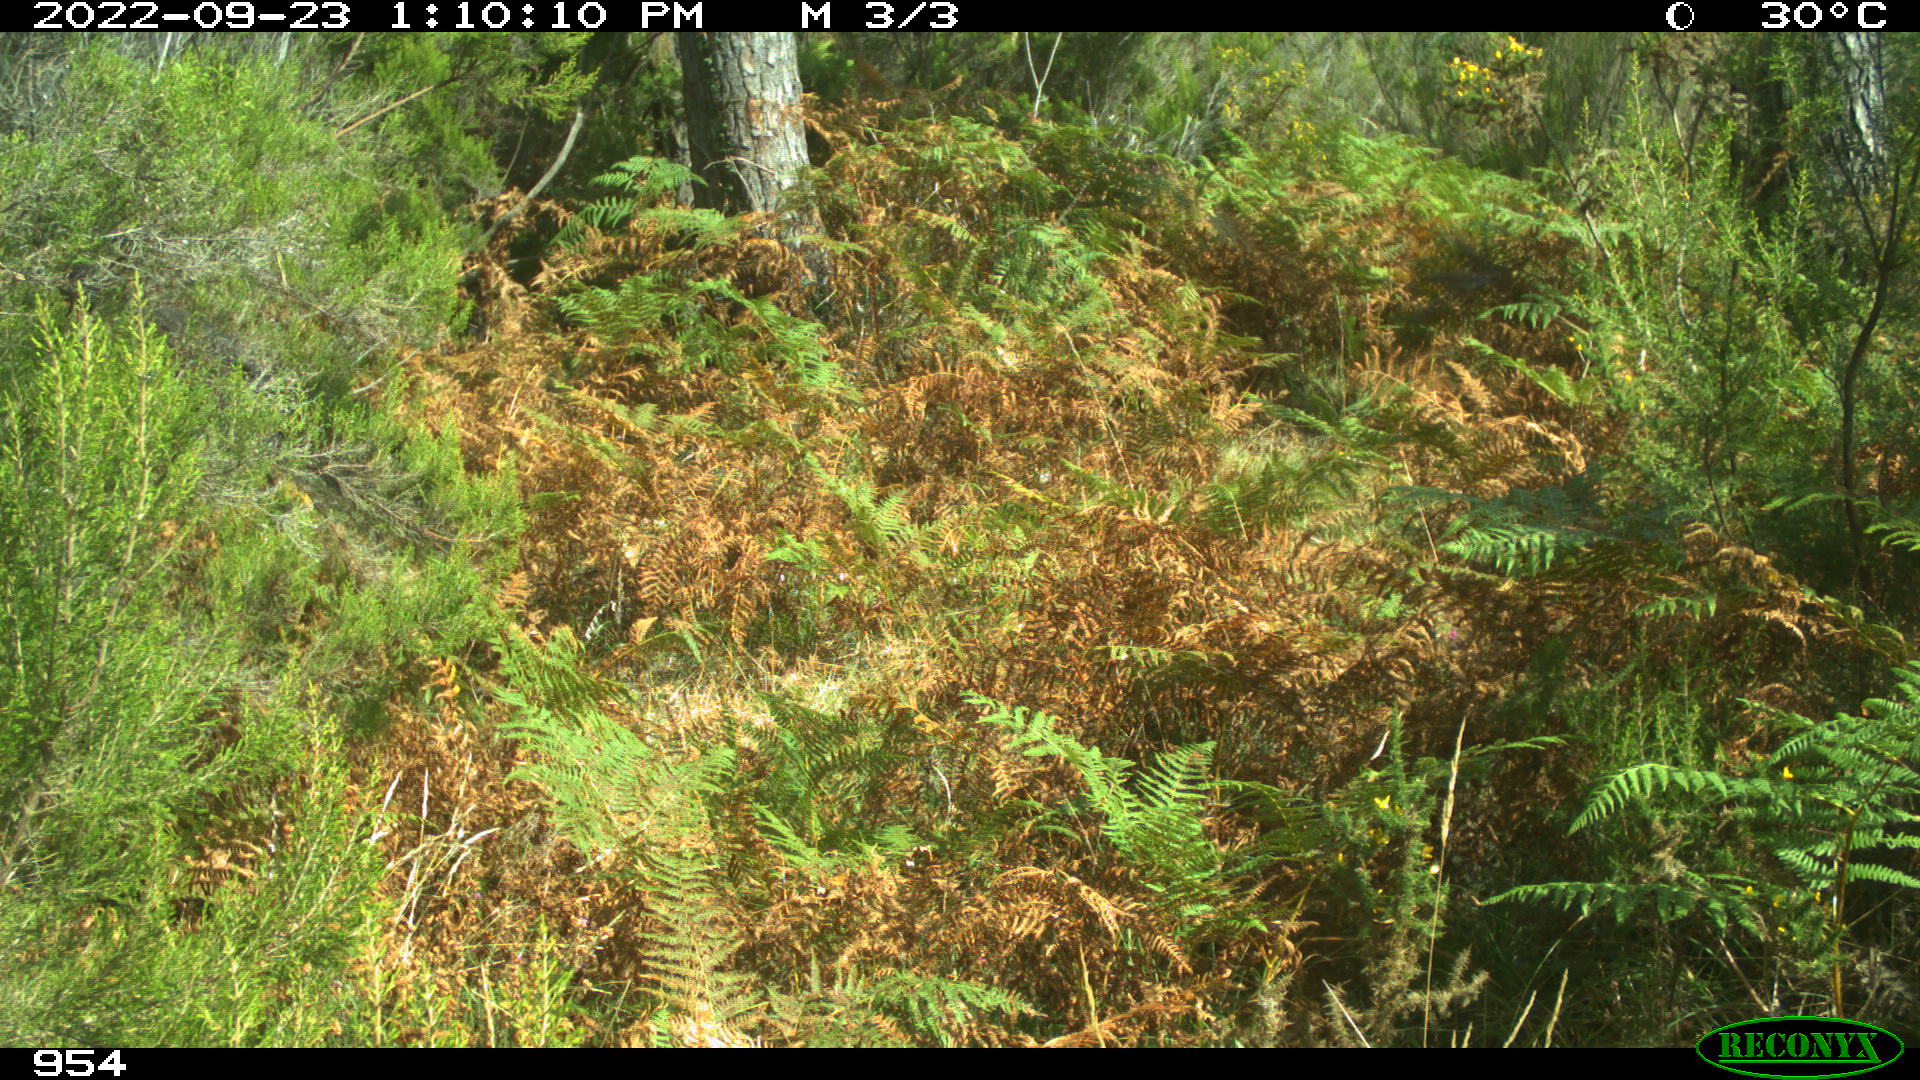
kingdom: Animalia
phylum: Chordata
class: Mammalia
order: Perissodactyla
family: Equidae
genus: Equus
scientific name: Equus caballus
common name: Horse
